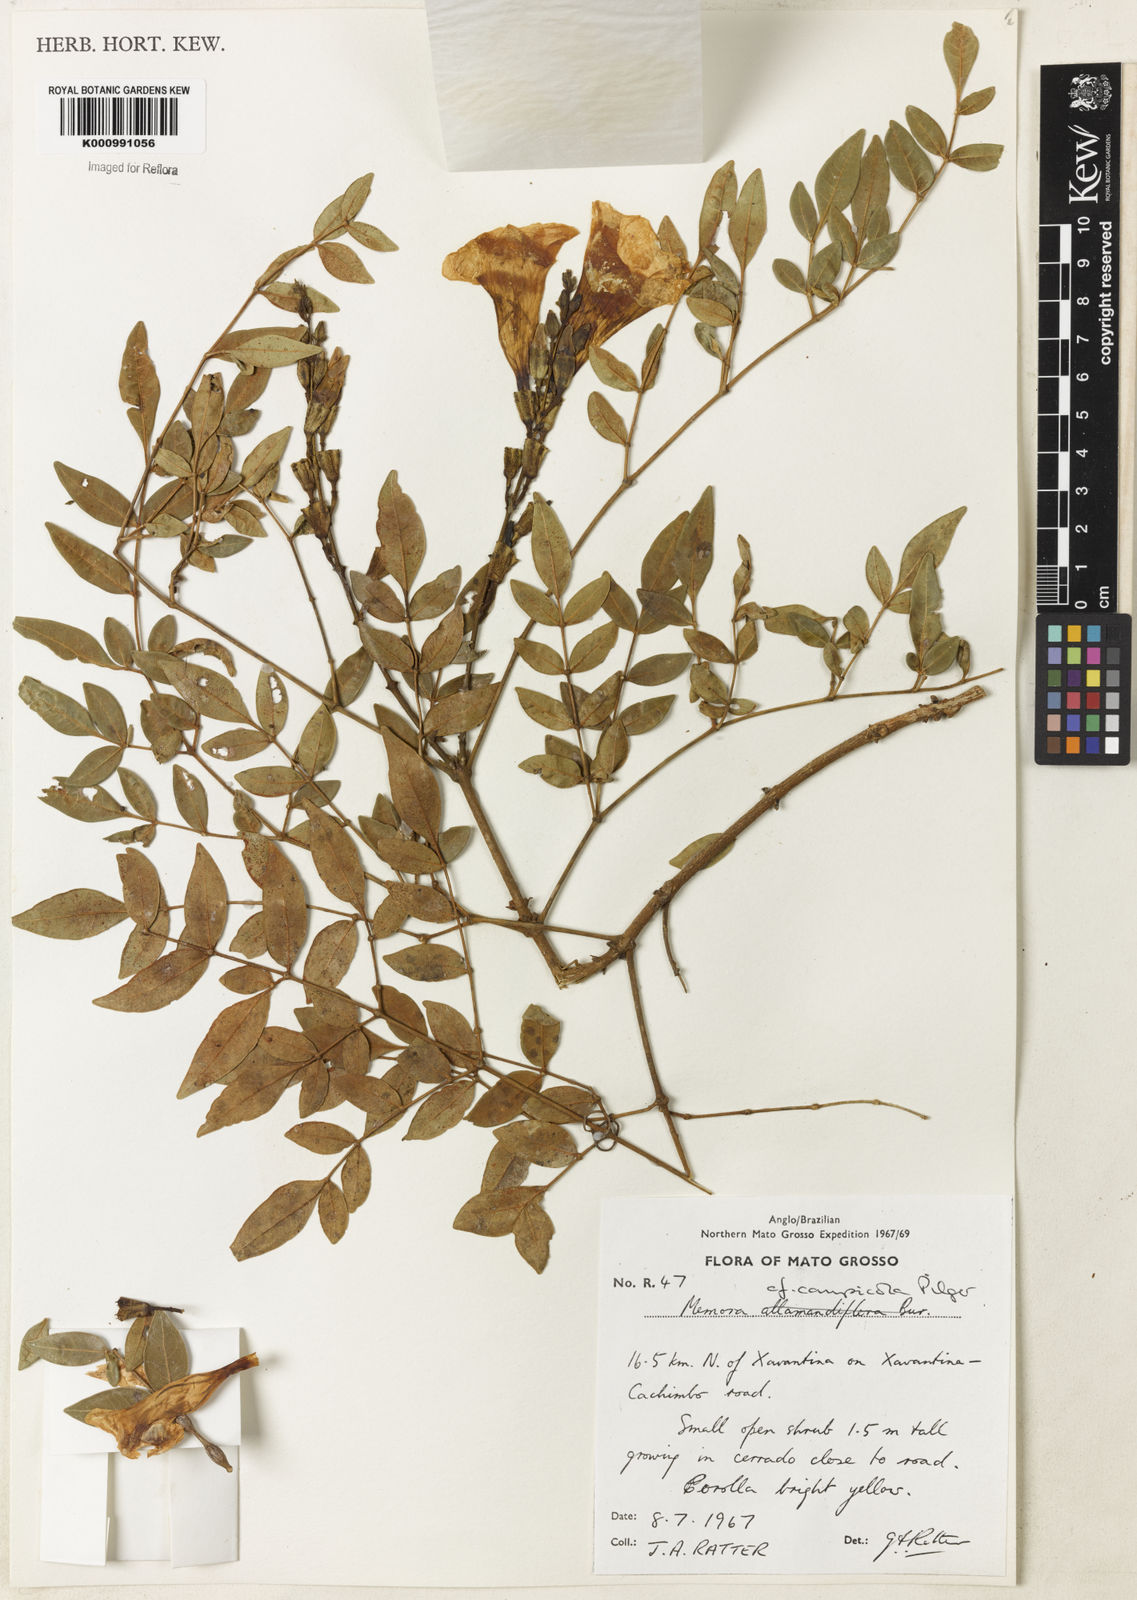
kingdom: Plantae
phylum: Tracheophyta
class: Magnoliopsida
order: Lamiales
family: Bignoniaceae
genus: Adenocalymma
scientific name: Adenocalymma campicola
